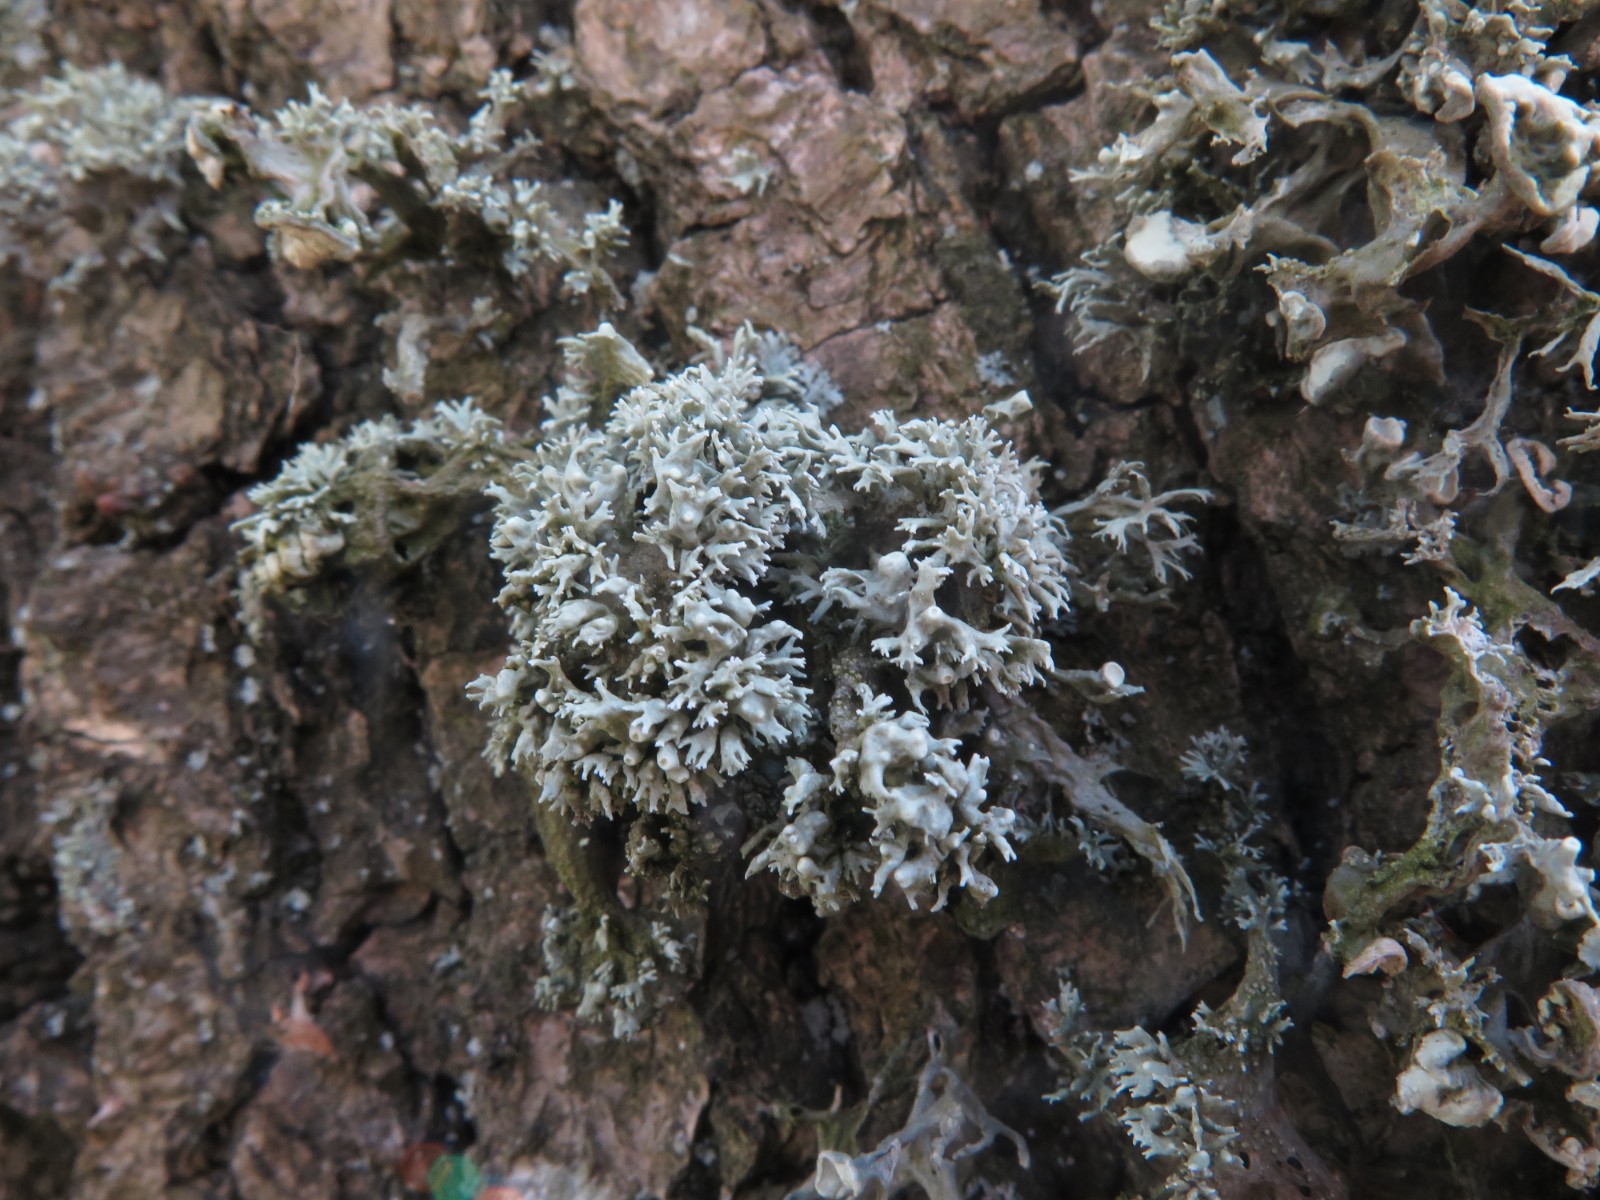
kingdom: Fungi
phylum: Ascomycota
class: Lecanoromycetes
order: Lecanorales
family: Ramalinaceae
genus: Ramalina
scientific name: Ramalina fastigiata
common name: tue-grenlav
